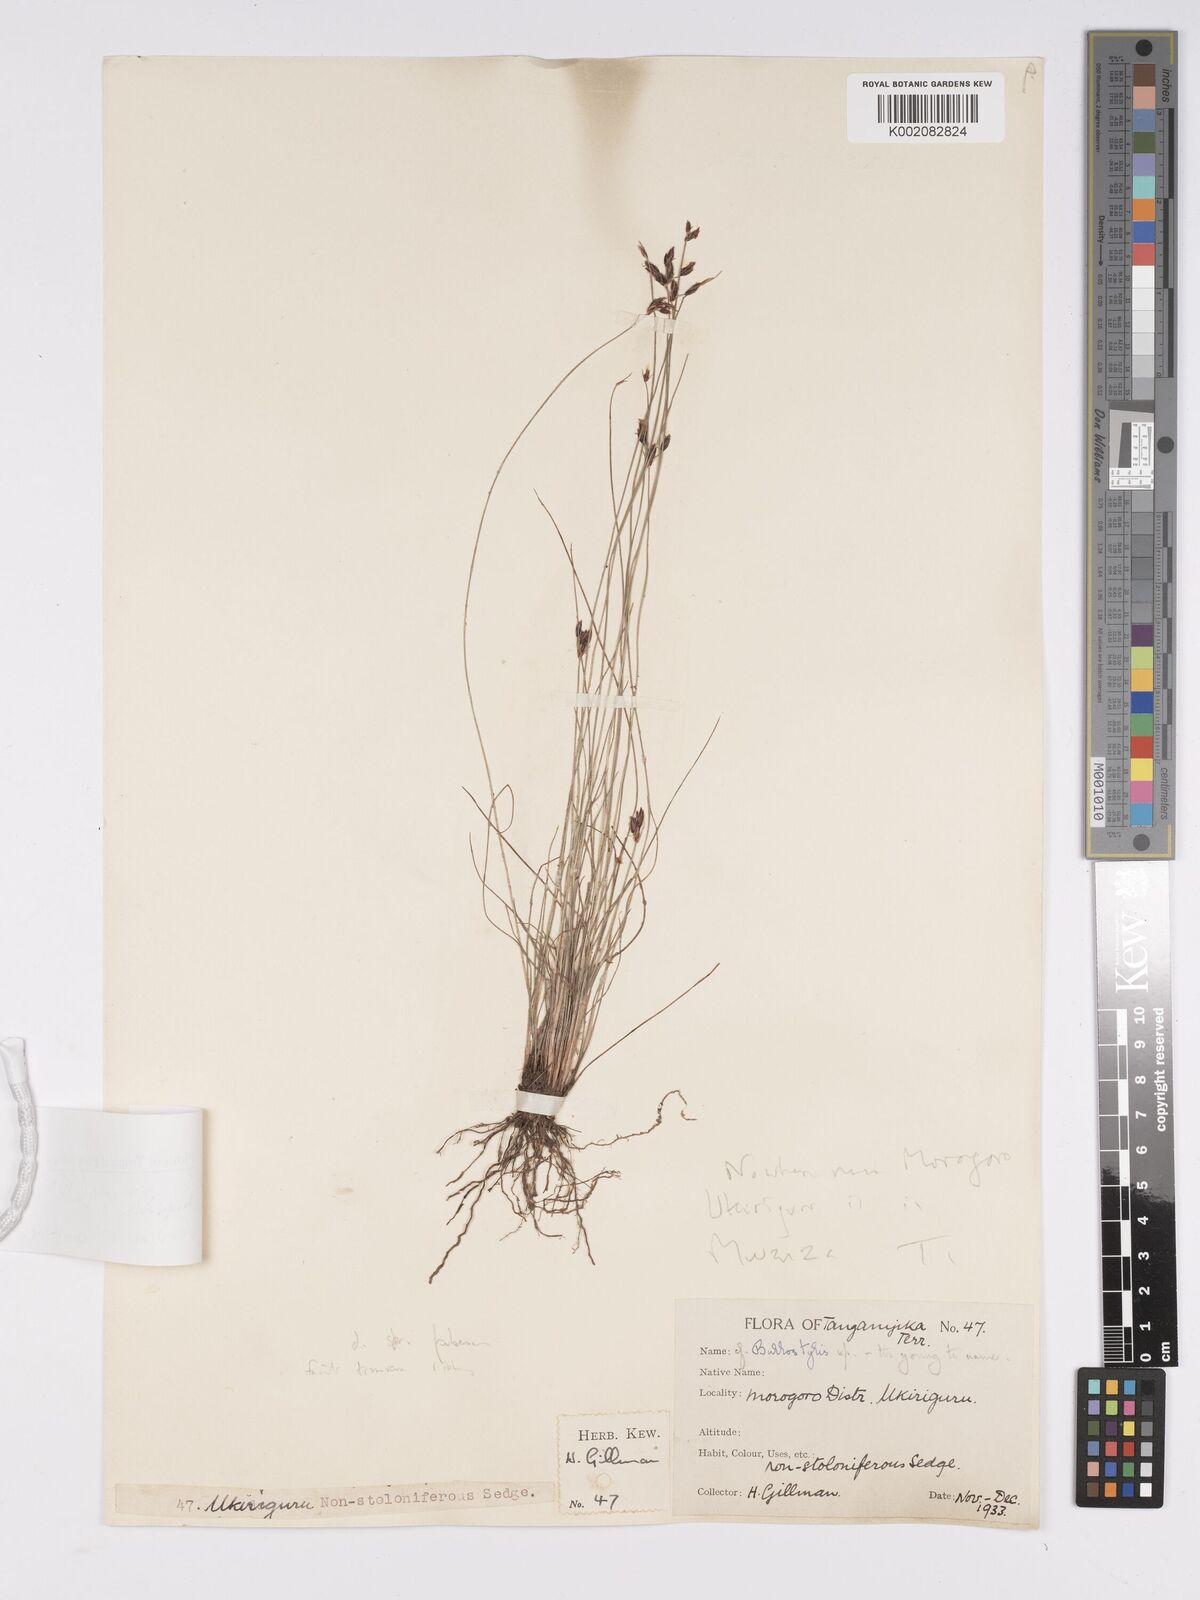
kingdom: Plantae
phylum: Tracheophyta
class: Liliopsida
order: Poales
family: Cyperaceae
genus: Bulbostylis
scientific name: Bulbostylis hispidula
